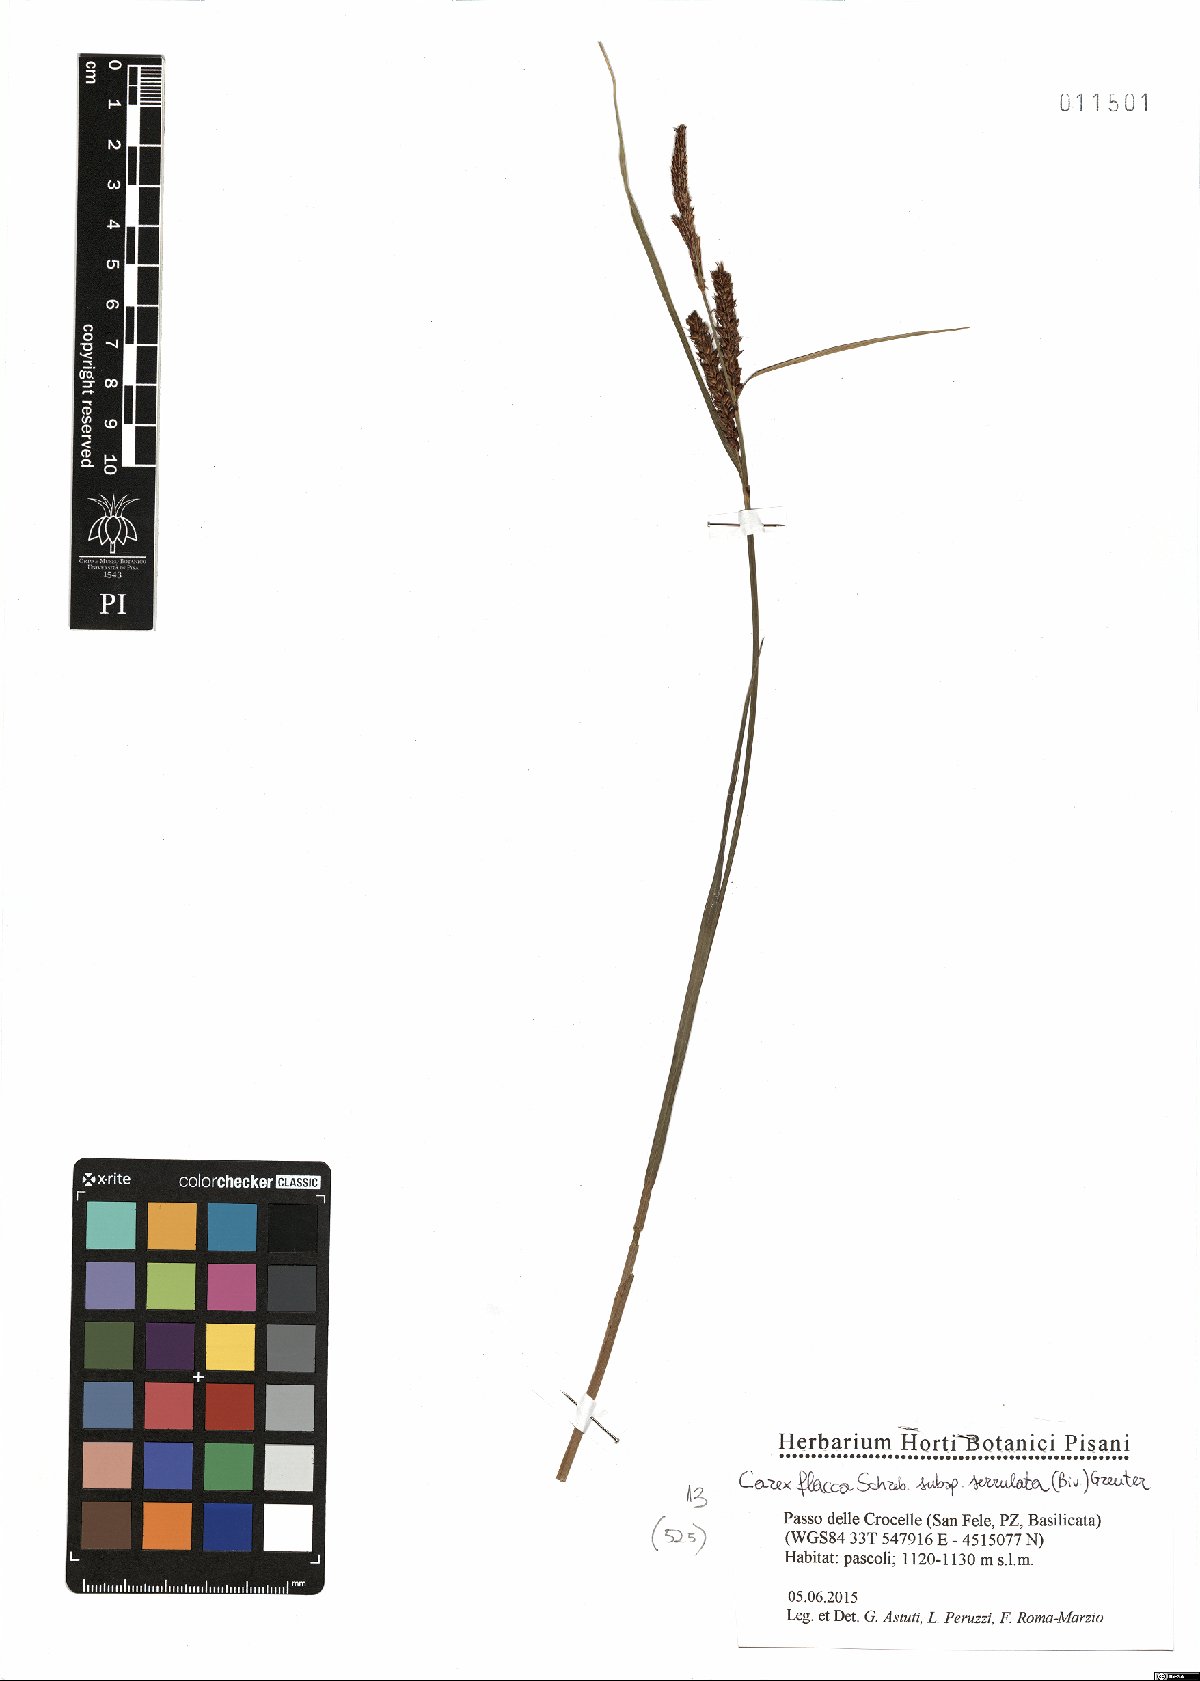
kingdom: Plantae
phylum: Tracheophyta
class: Liliopsida
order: Poales
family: Cyperaceae
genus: Carex
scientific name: Carex flacca
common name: Glaucous sedge
